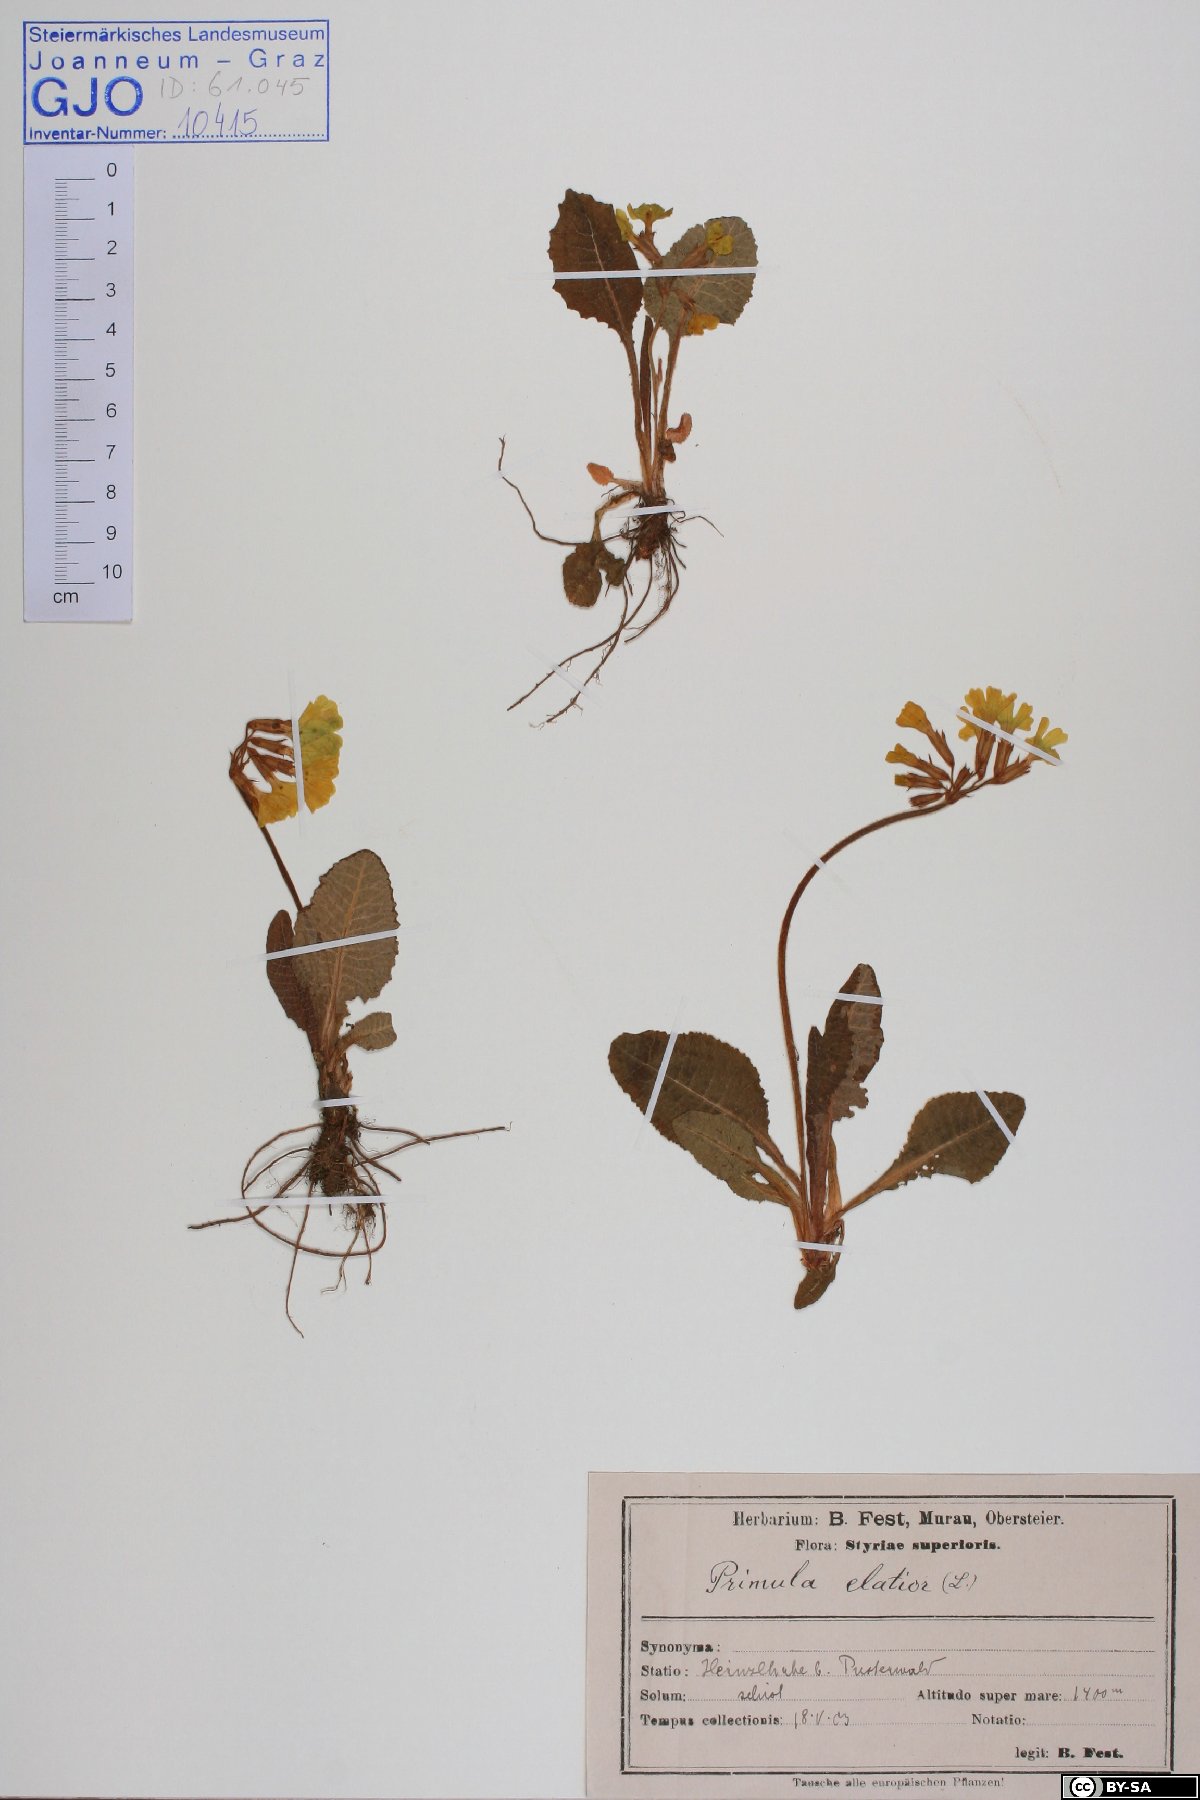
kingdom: Plantae
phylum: Tracheophyta
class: Magnoliopsida
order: Ericales
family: Primulaceae
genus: Primula
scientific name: Primula elatior
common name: Oxlip
